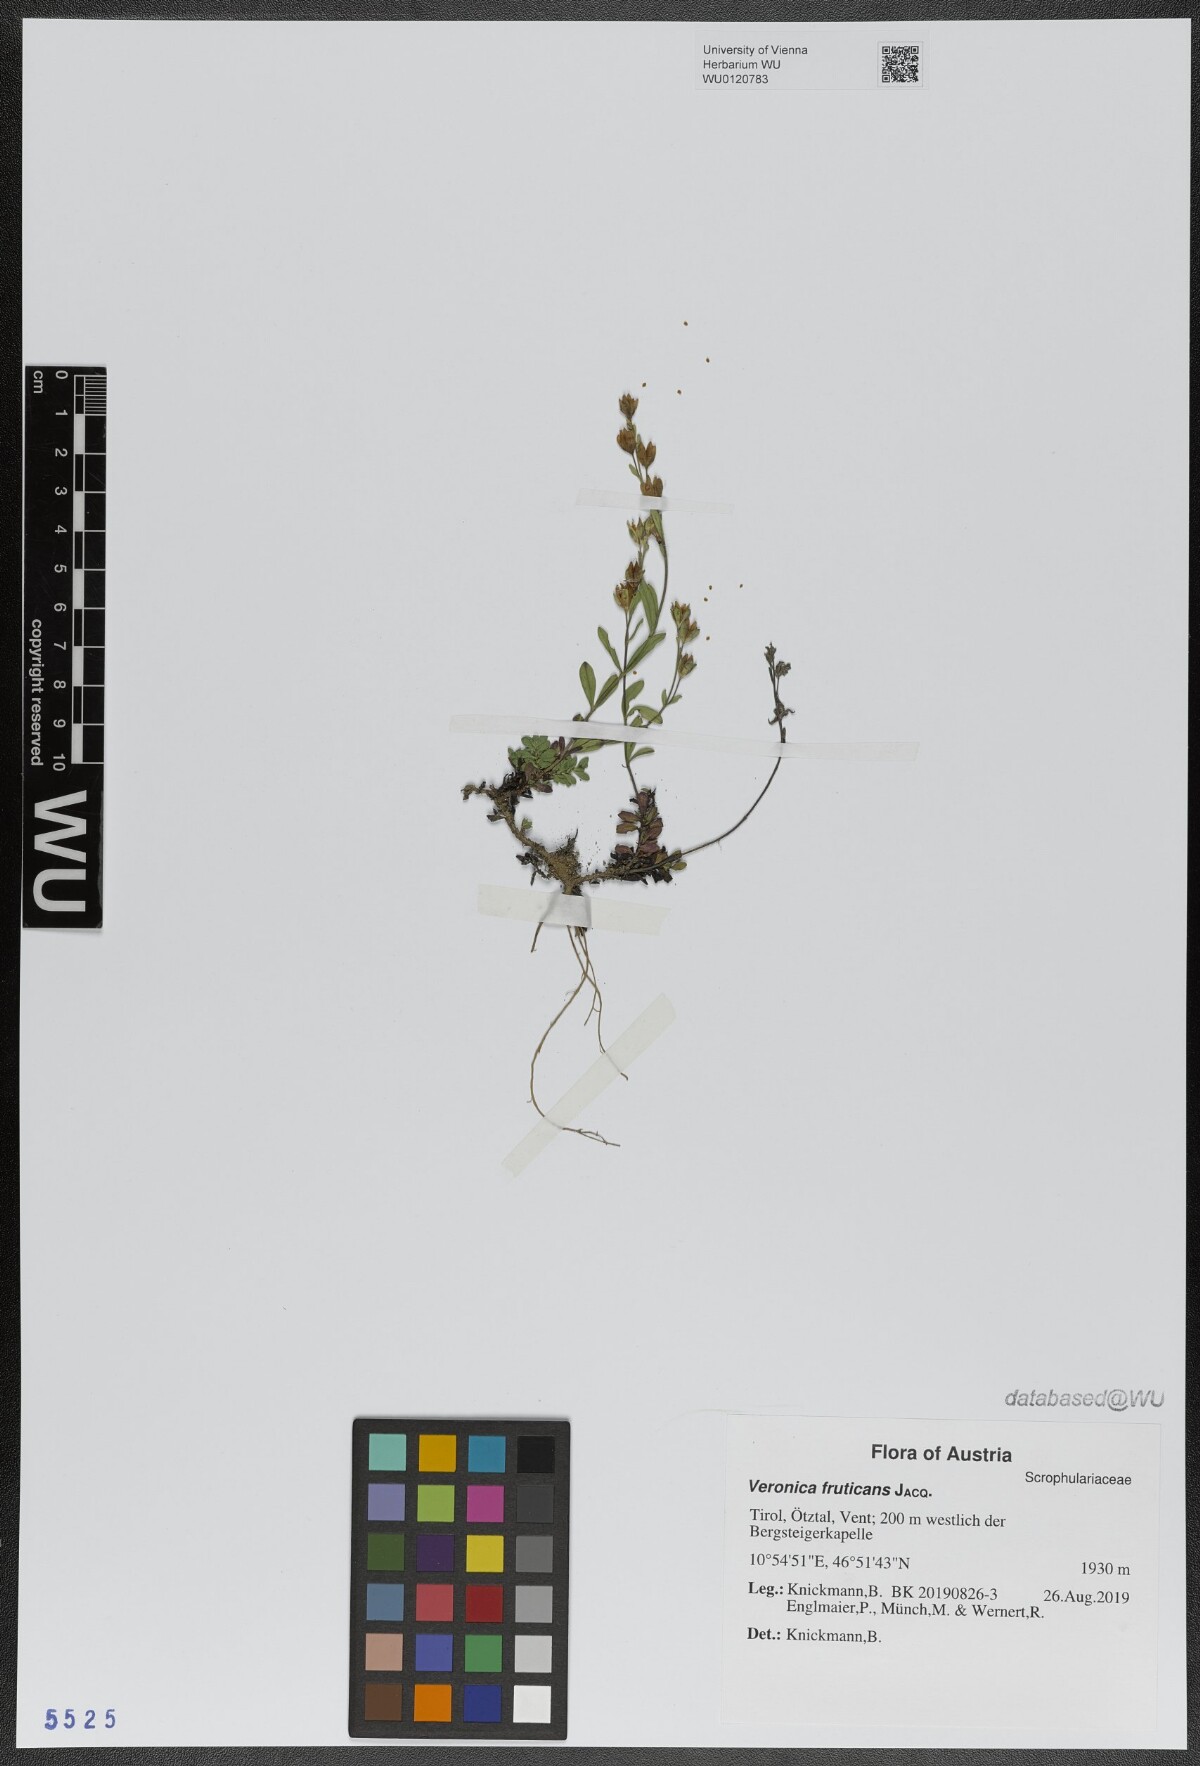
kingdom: Plantae
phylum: Tracheophyta
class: Magnoliopsida
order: Lamiales
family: Plantaginaceae
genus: Veronica
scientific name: Veronica fruticans
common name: Rock speedwell
